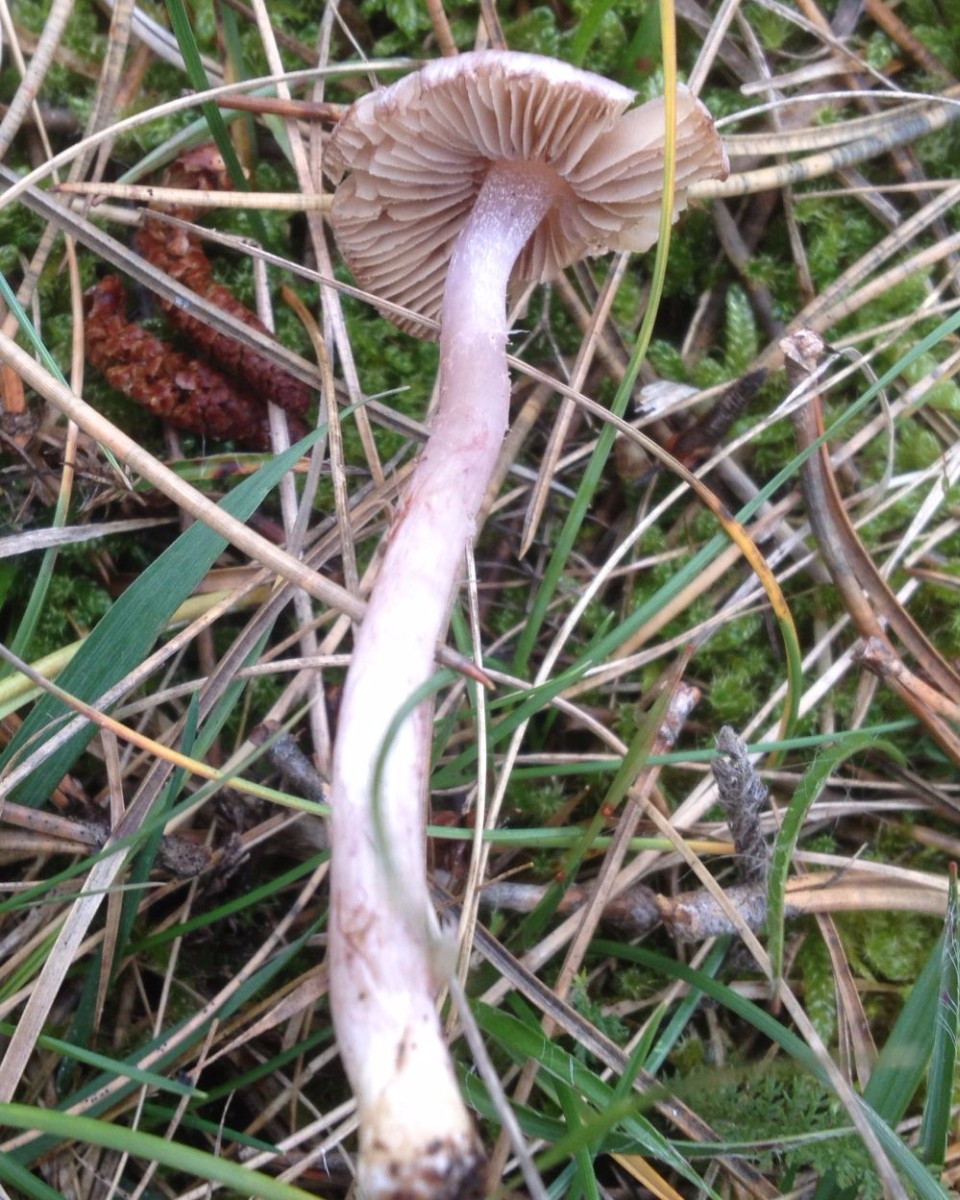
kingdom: Fungi
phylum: Basidiomycota
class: Agaricomycetes
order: Agaricales
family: Inocybaceae
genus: Inocybe
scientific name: Inocybe
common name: trævlhat
